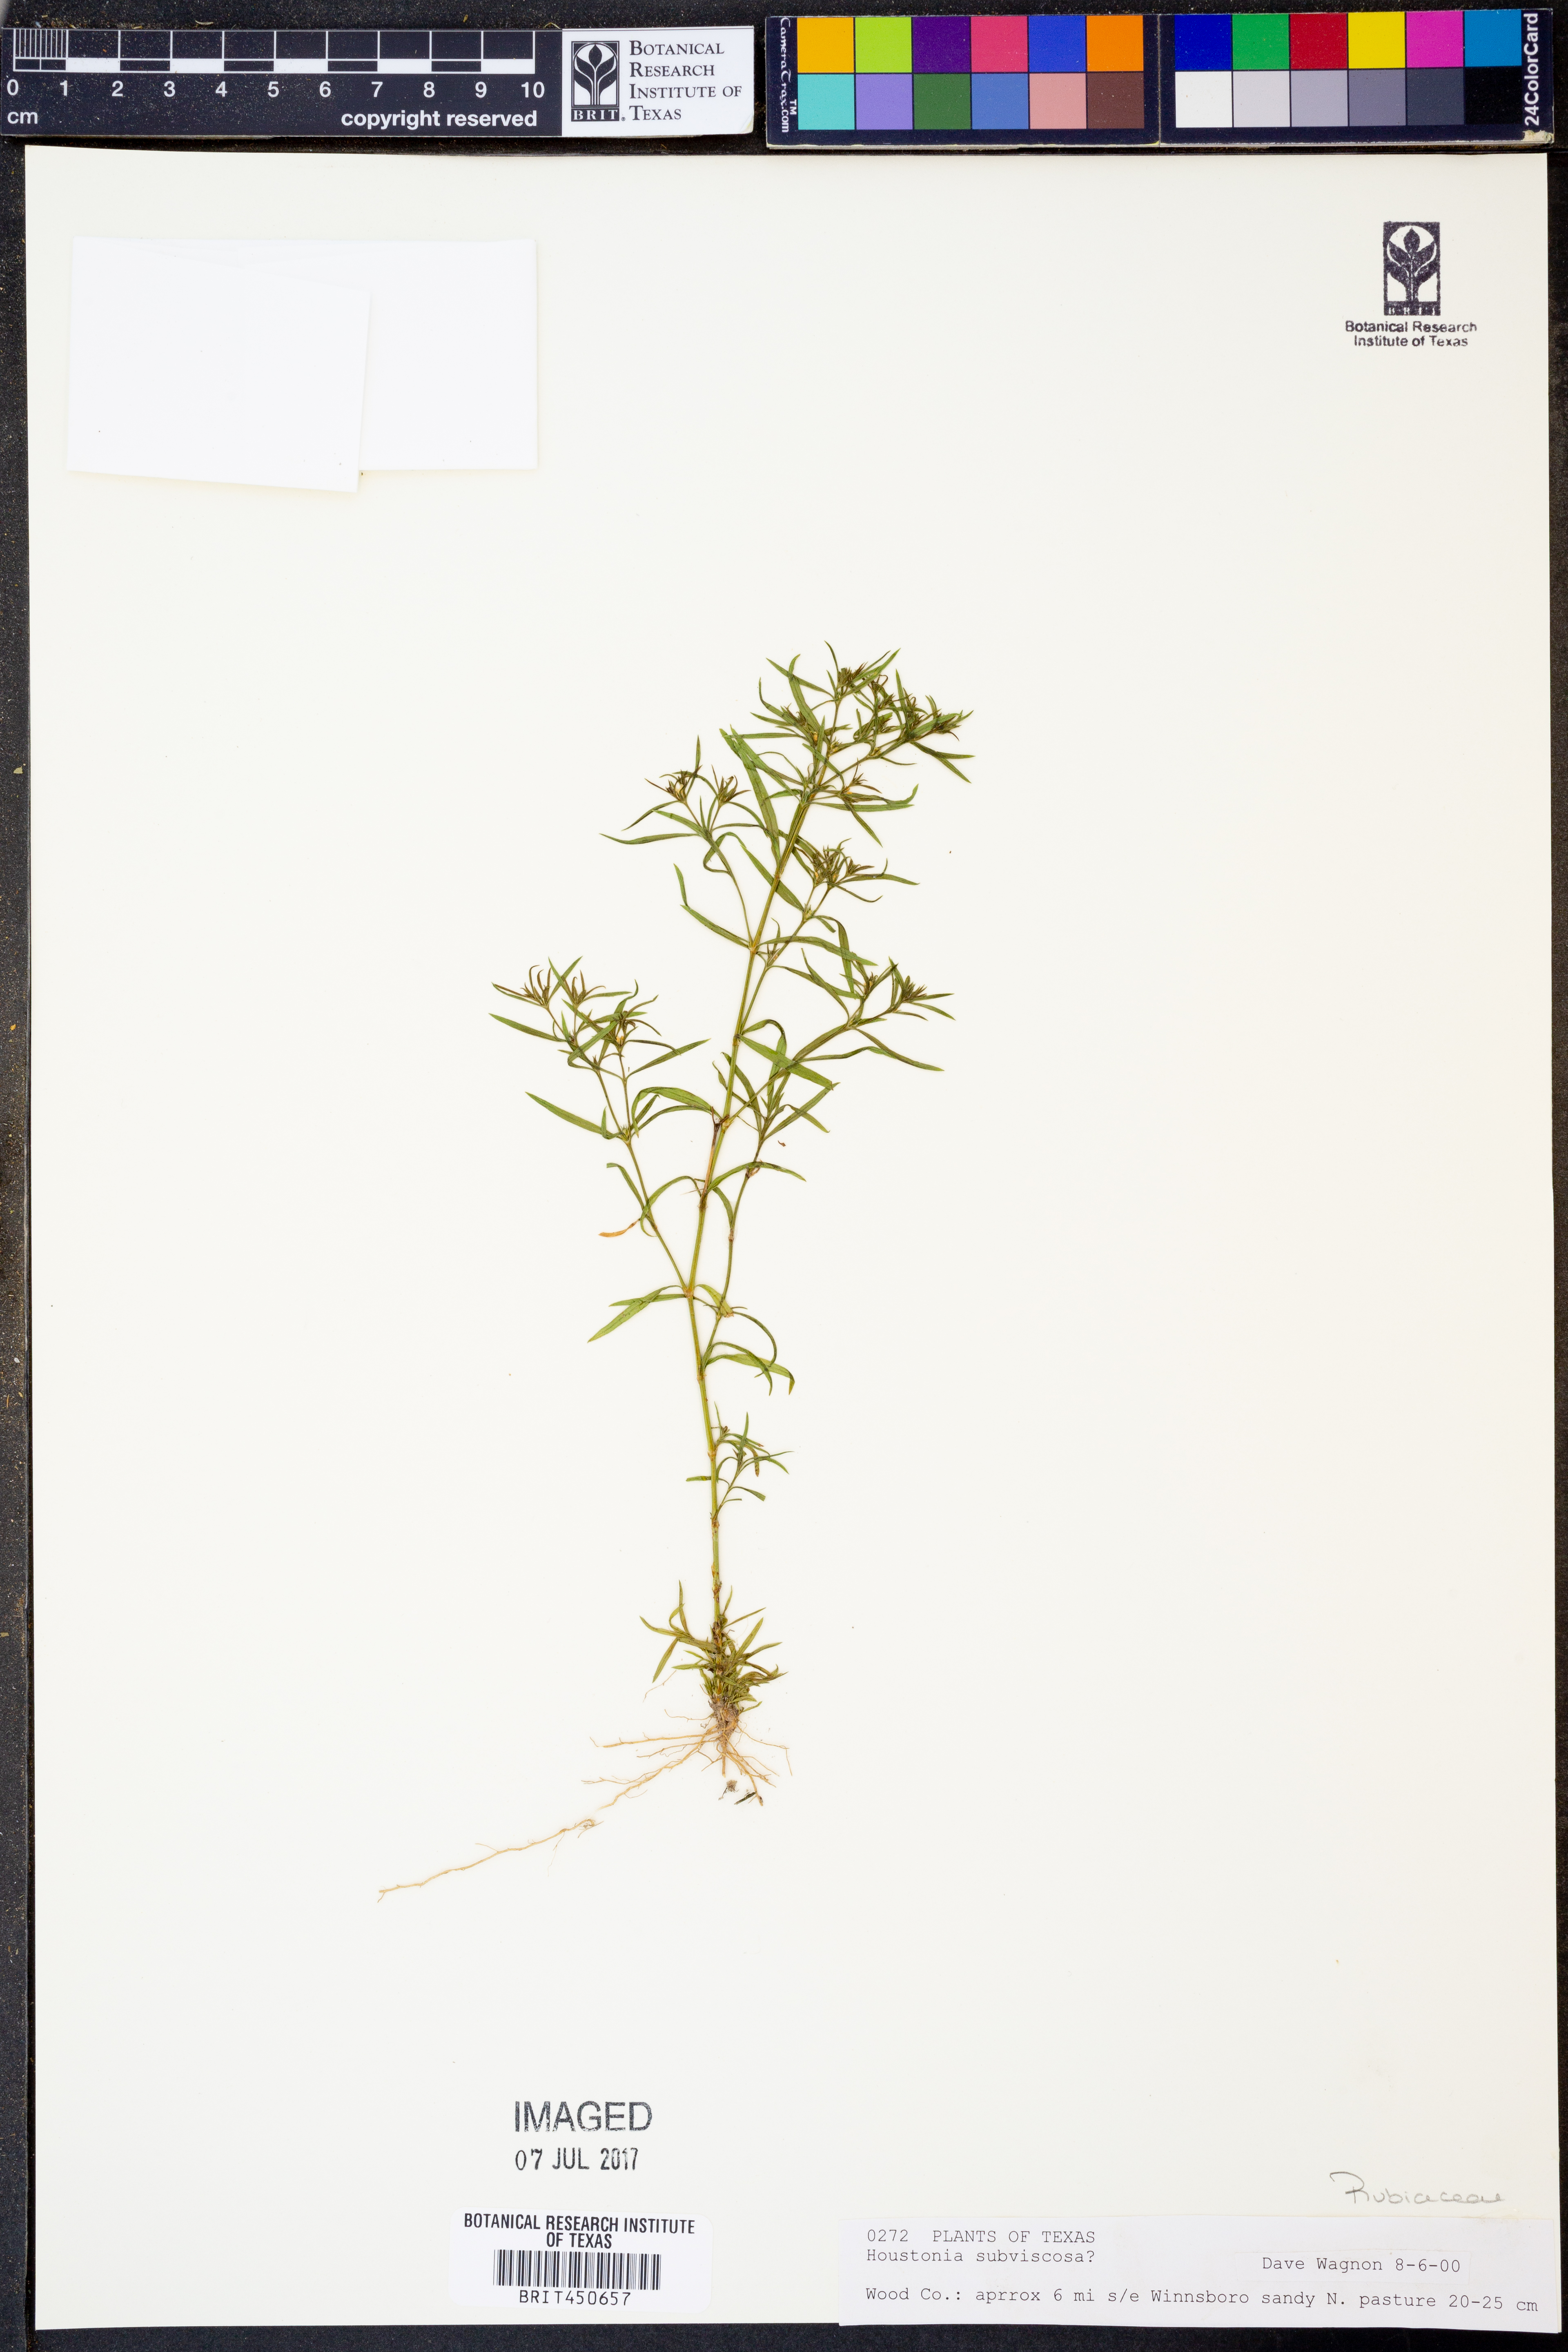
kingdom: Plantae
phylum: Tracheophyta
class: Magnoliopsida
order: Gentianales
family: Rubiaceae
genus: Houstonia
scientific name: Houstonia subviscosa
